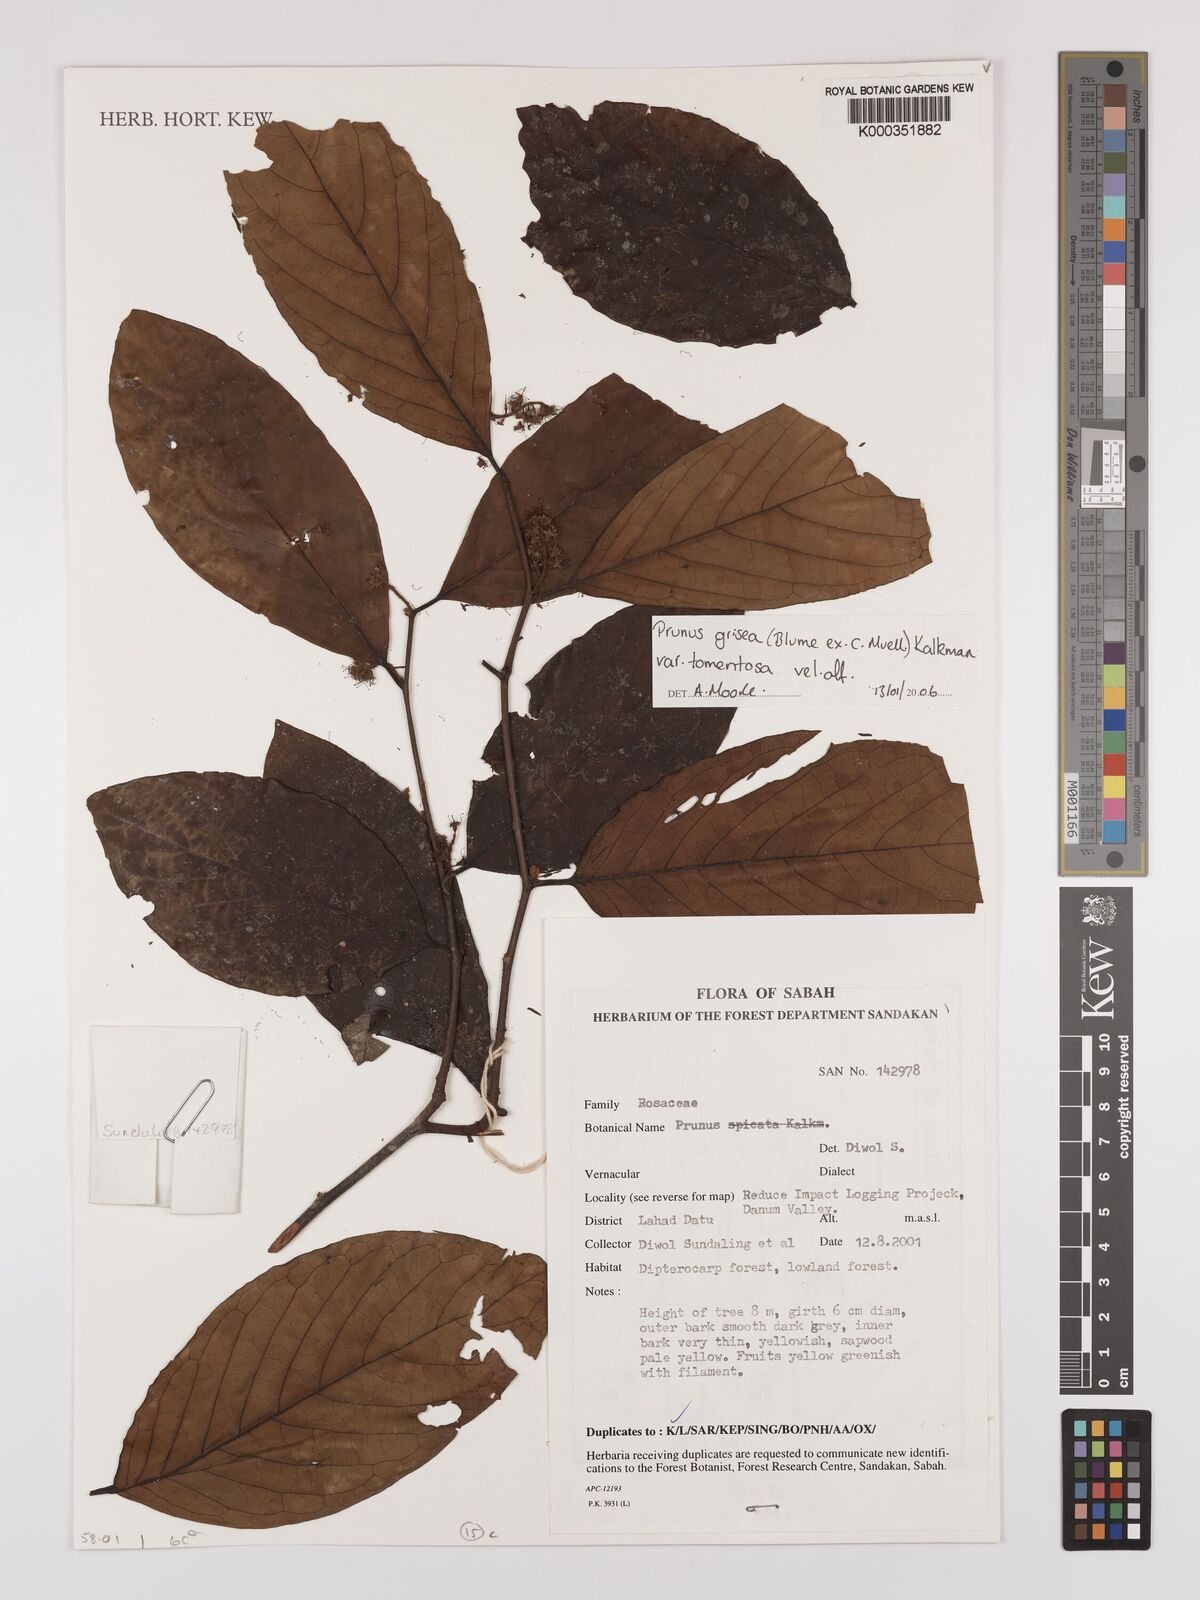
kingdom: Plantae
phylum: Tracheophyta
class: Magnoliopsida
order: Rosales
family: Rosaceae
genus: Prunus
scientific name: Prunus grisea
